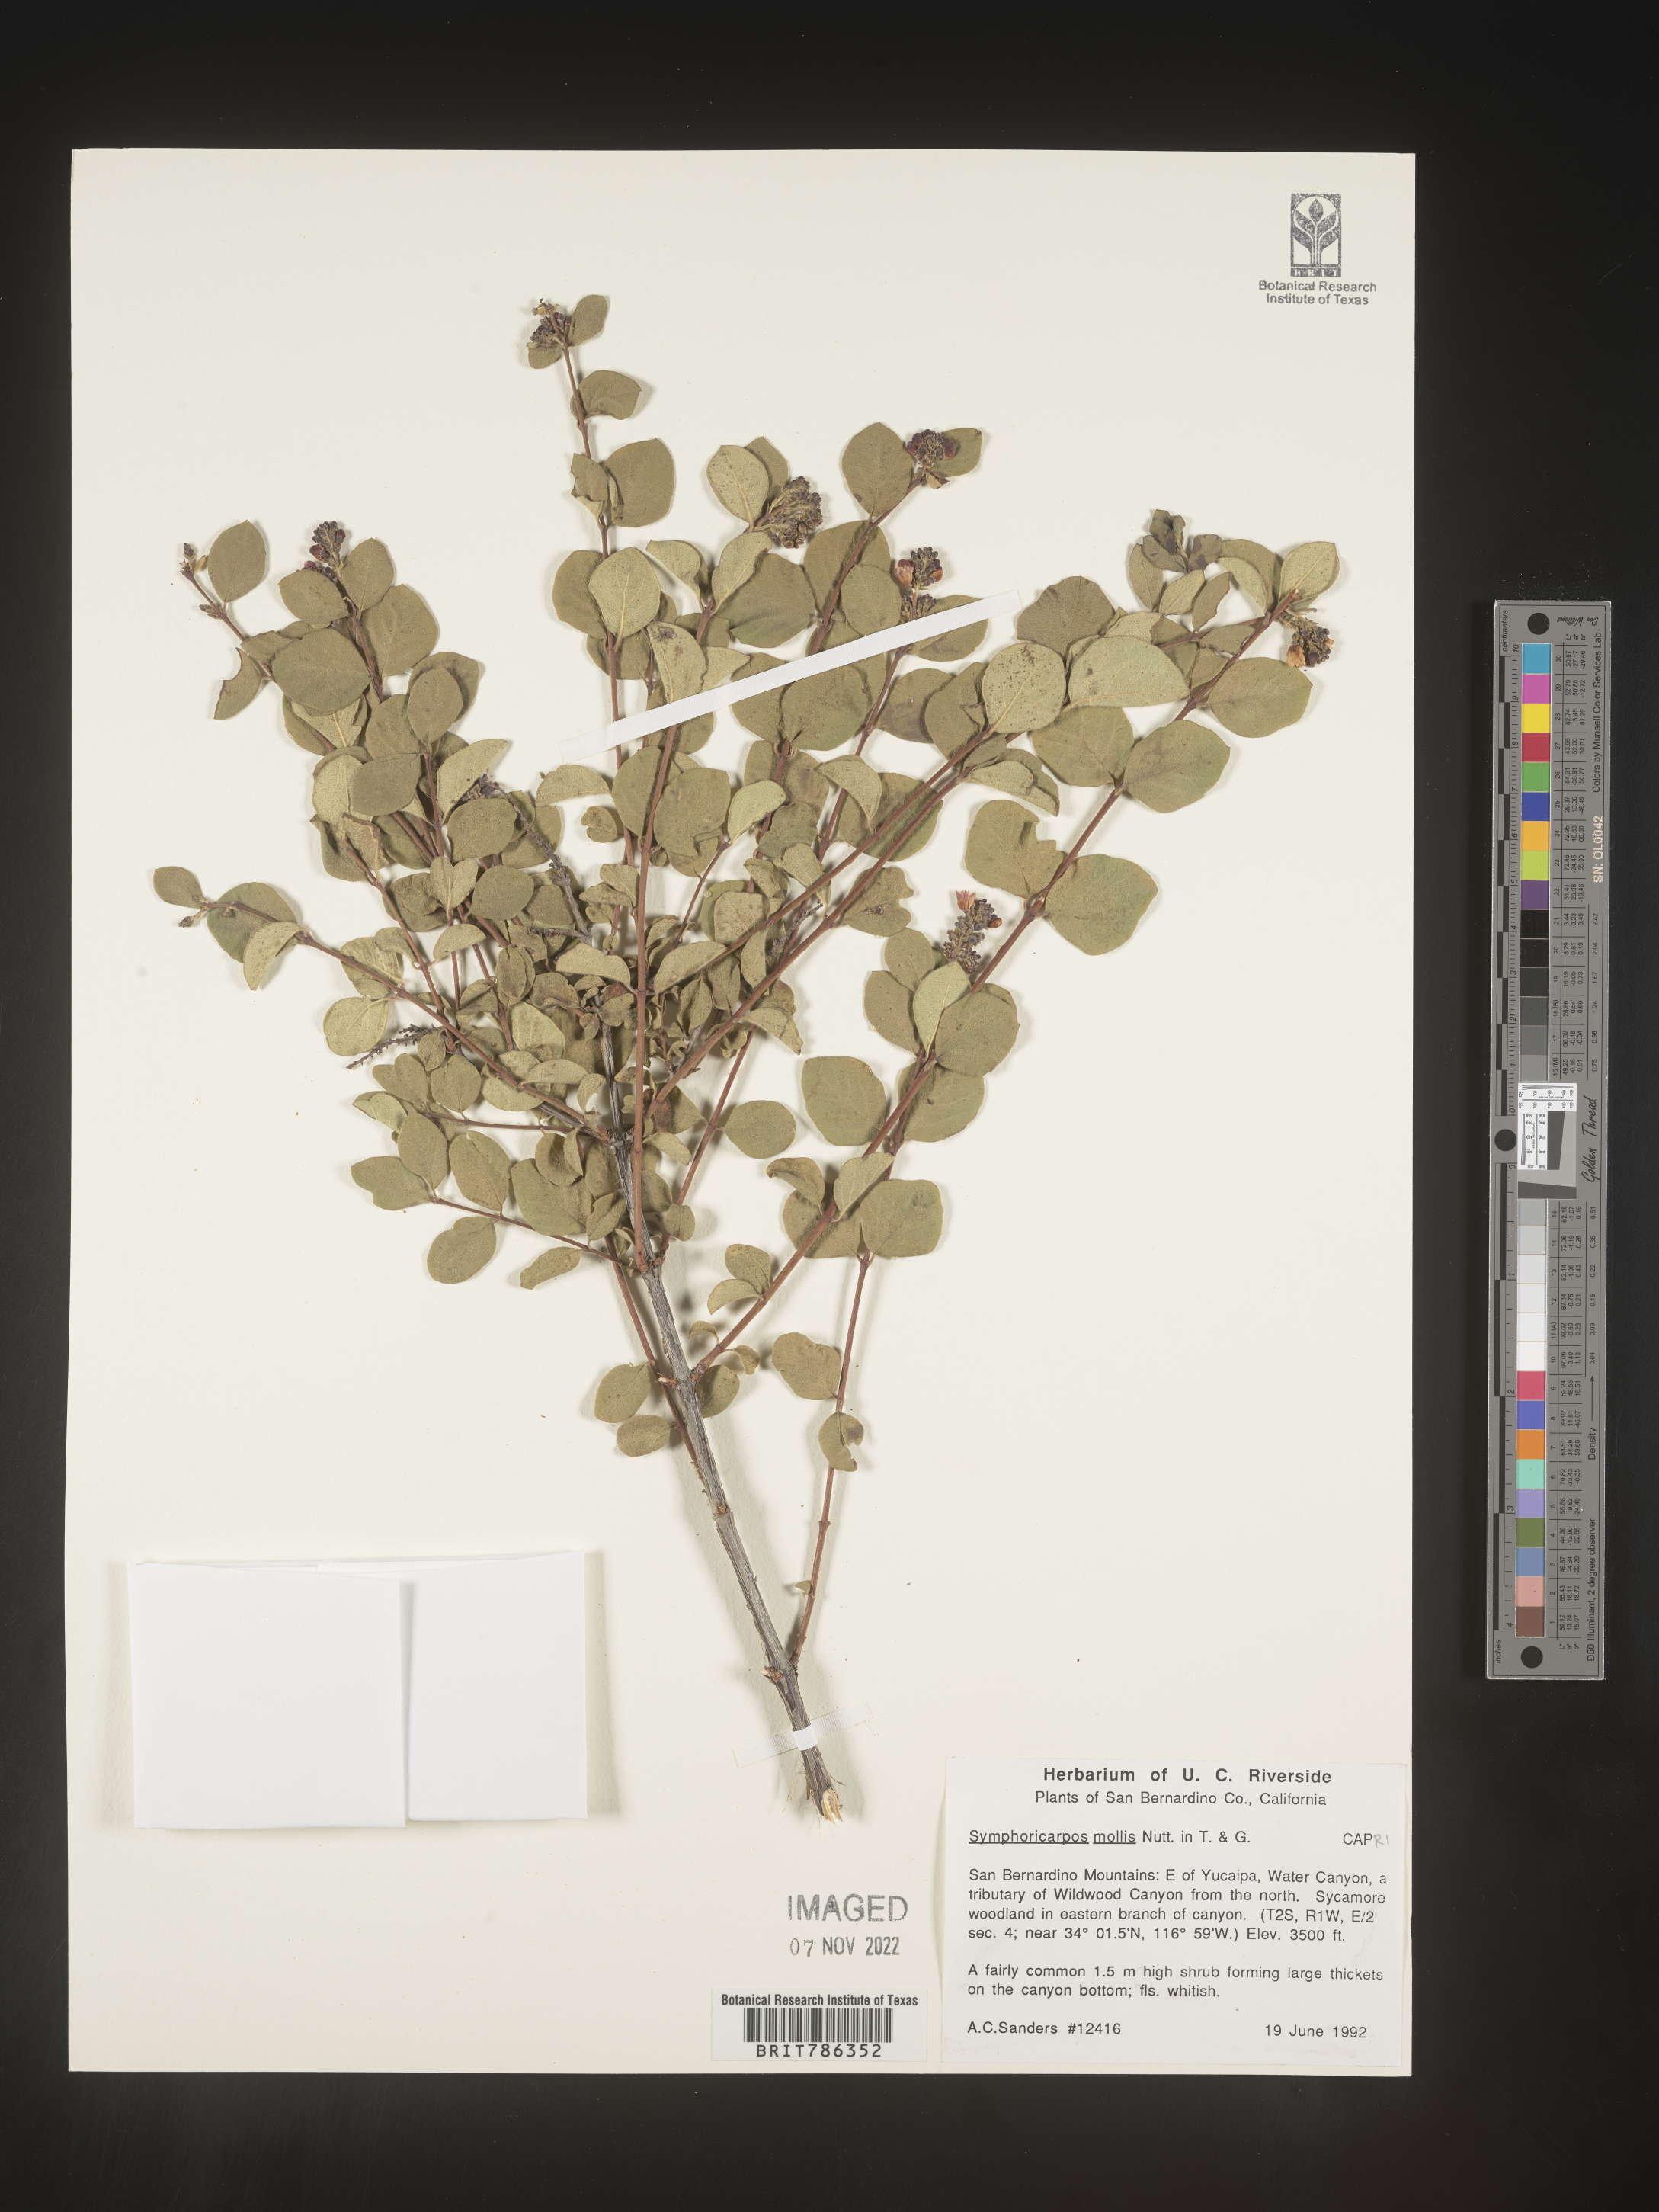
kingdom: Plantae
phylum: Tracheophyta
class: Magnoliopsida
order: Dipsacales
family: Caprifoliaceae
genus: Symphoricarpos
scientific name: Symphoricarpos
